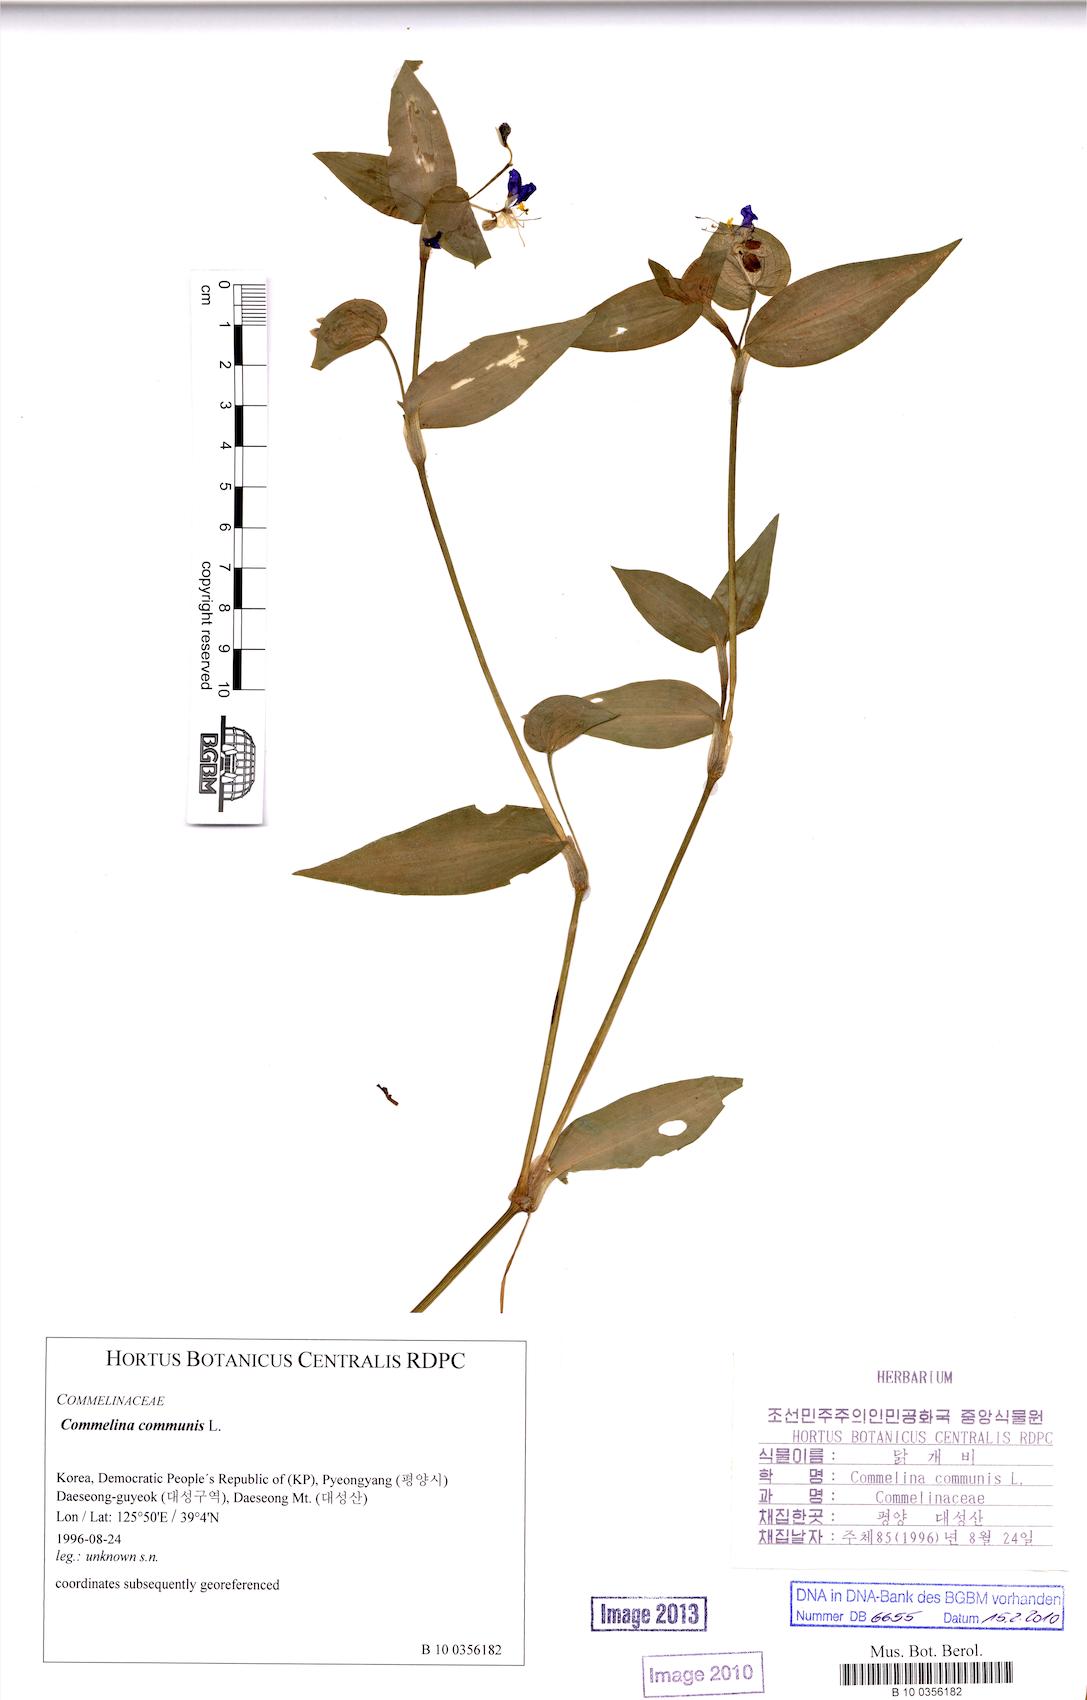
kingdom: Plantae
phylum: Tracheophyta
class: Liliopsida
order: Commelinales
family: Commelinaceae
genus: Commelina
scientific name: Commelina communis
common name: Asiatic dayflower
